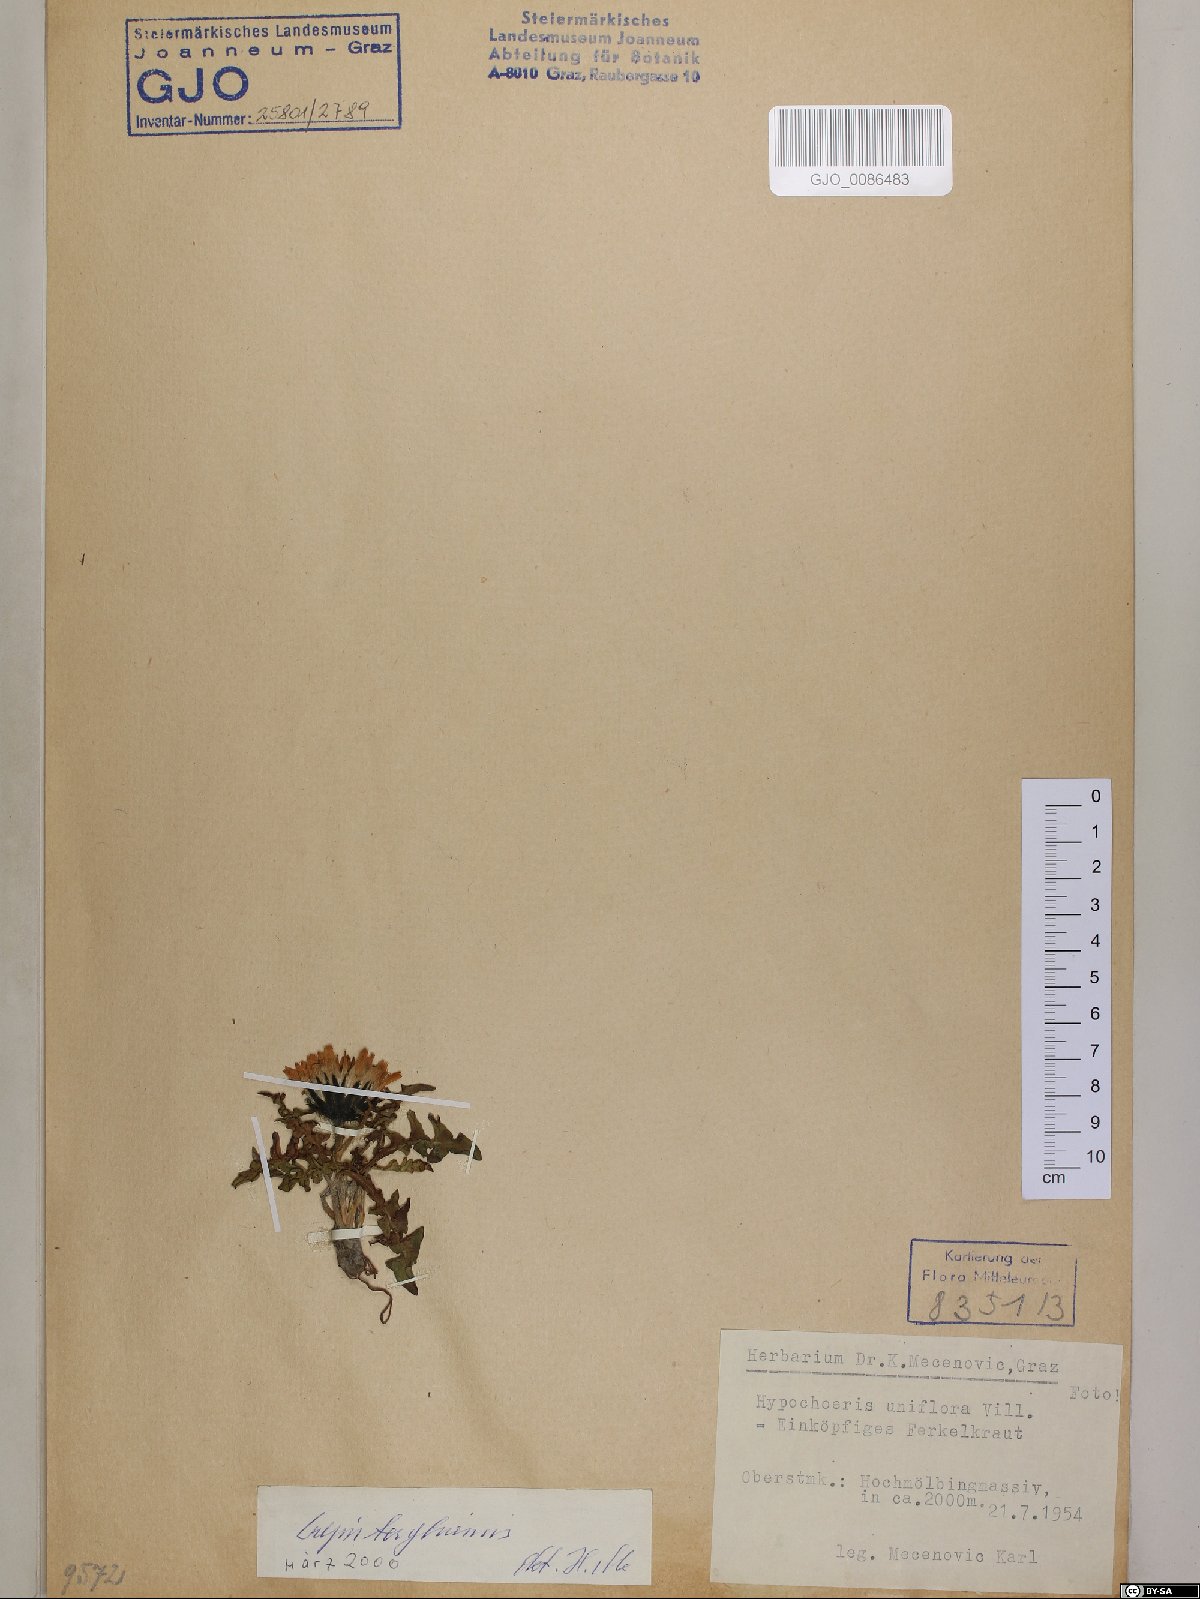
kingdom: Plantae
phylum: Tracheophyta
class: Magnoliopsida
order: Asterales
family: Asteraceae
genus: Crepis
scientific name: Crepis terglouensis
